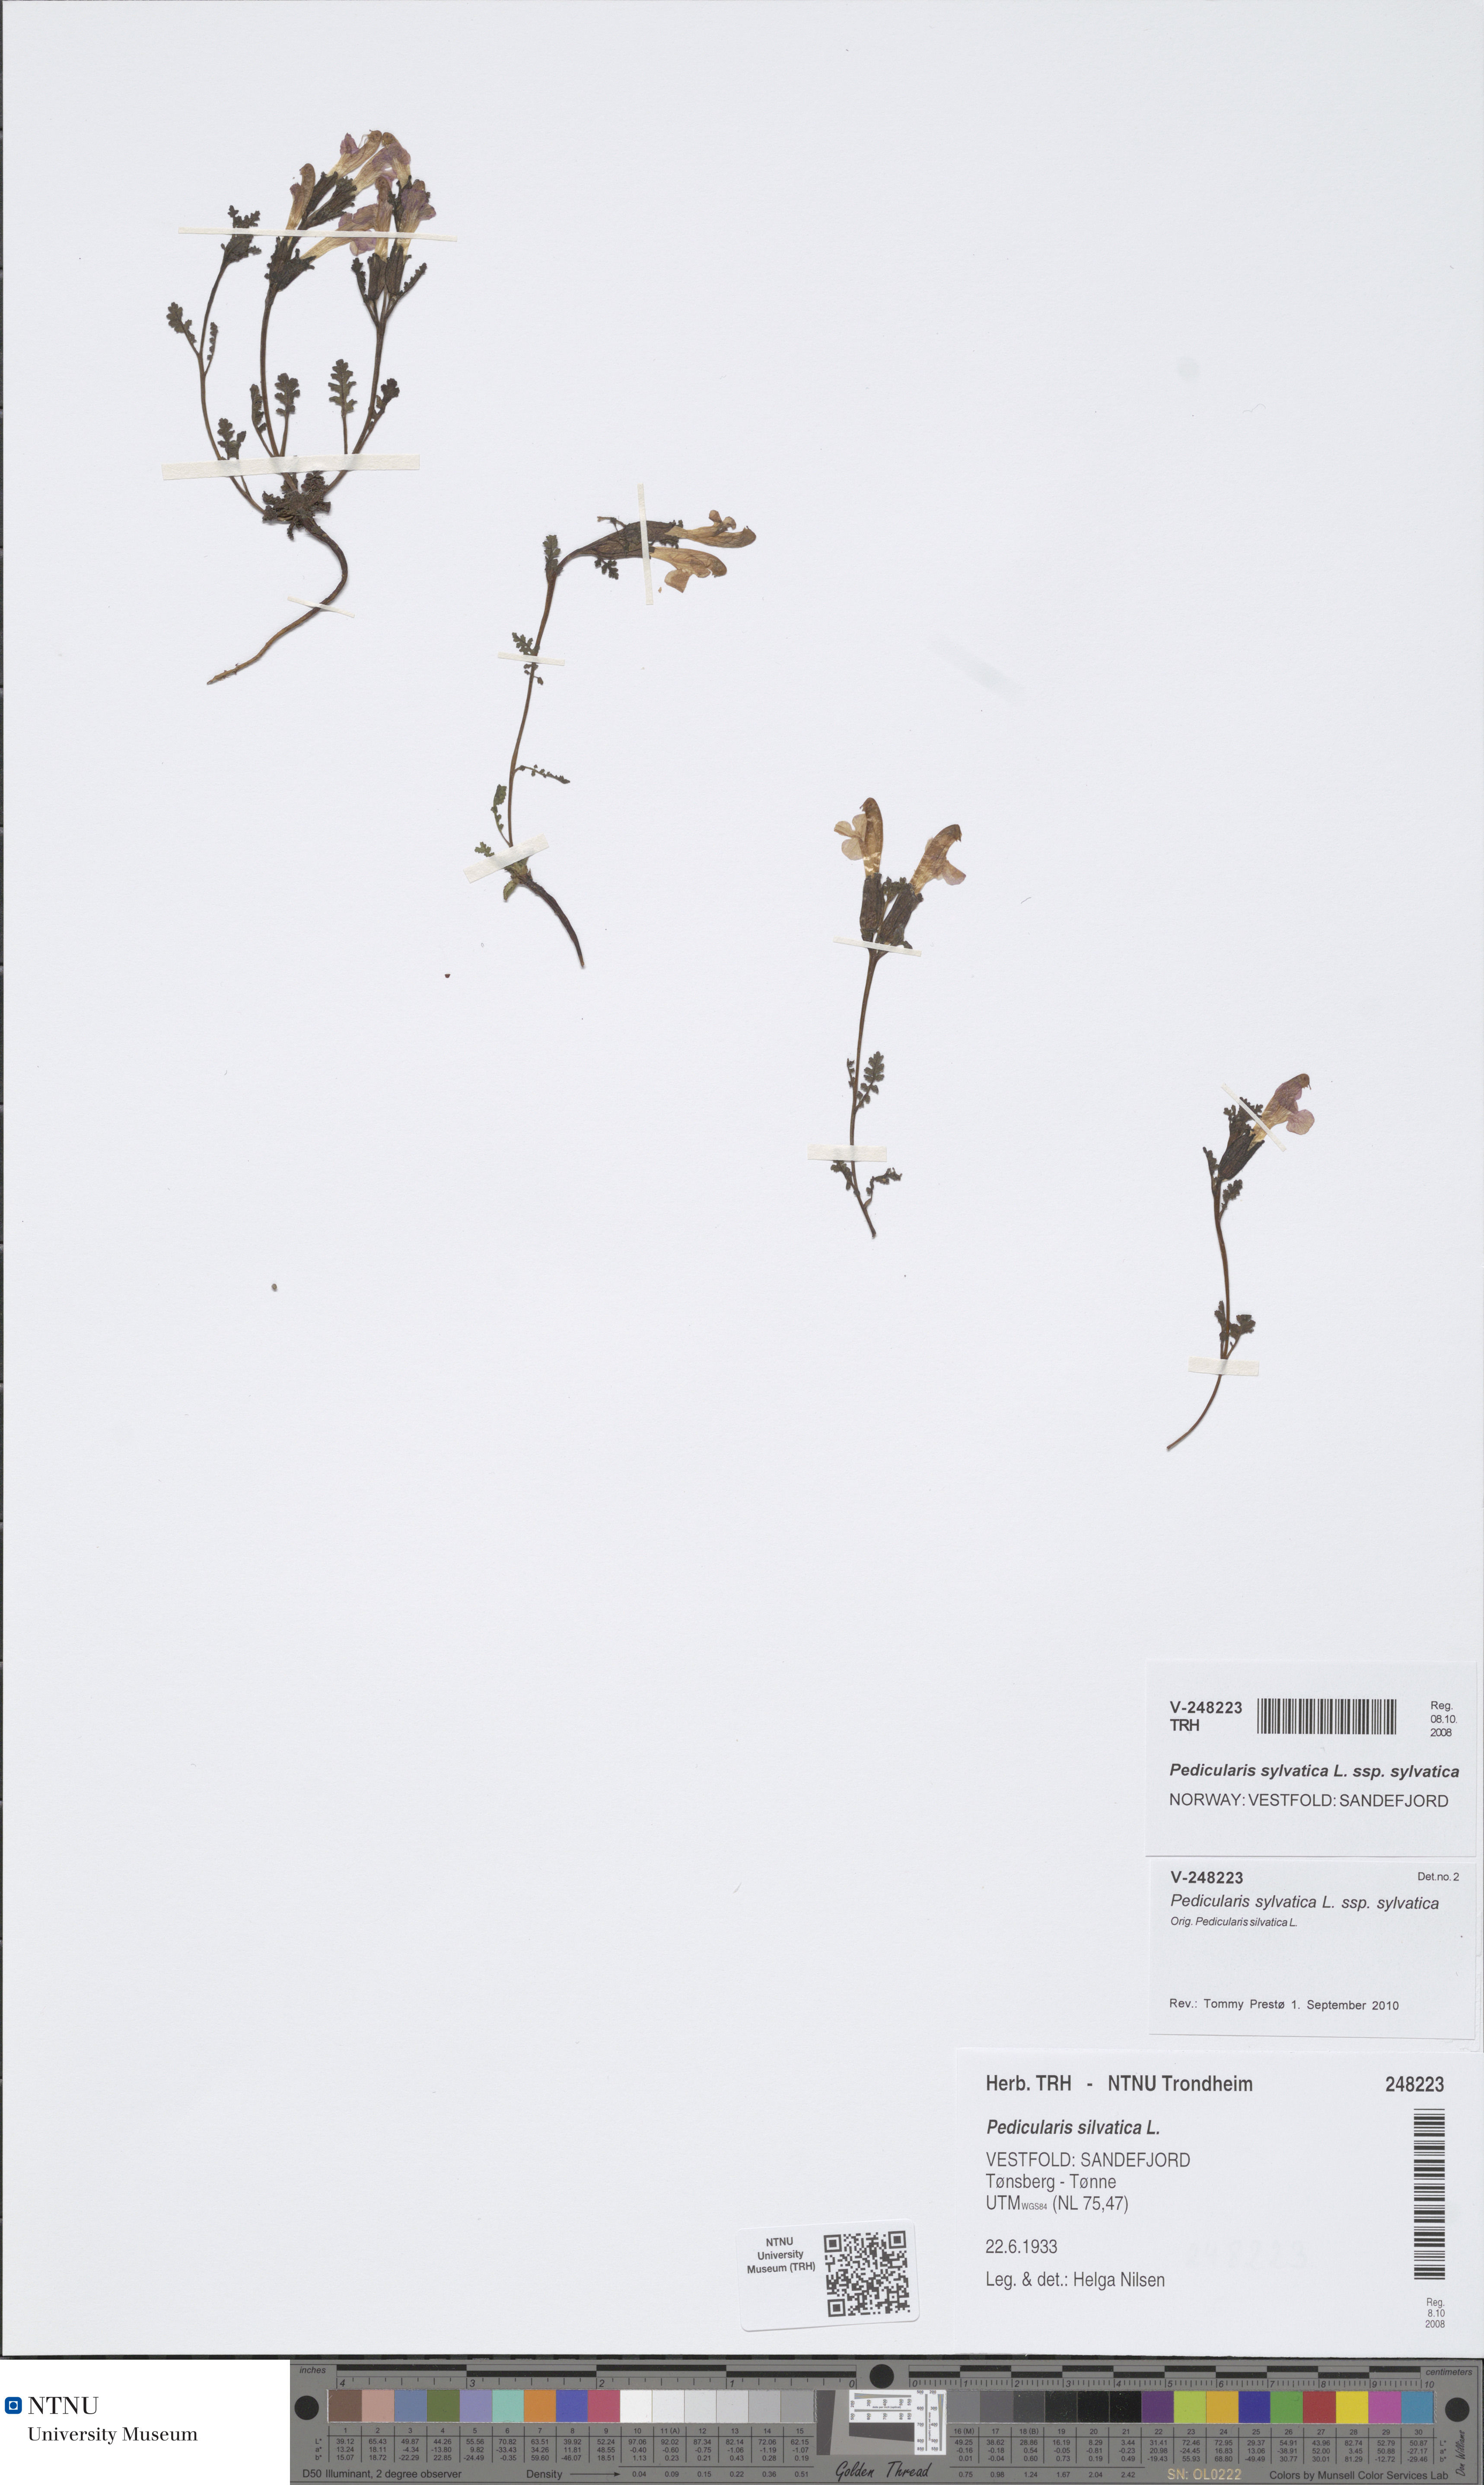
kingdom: Plantae
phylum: Tracheophyta
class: Magnoliopsida
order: Lamiales
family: Orobanchaceae
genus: Pedicularis
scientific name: Pedicularis sylvatica
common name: Lousewort
